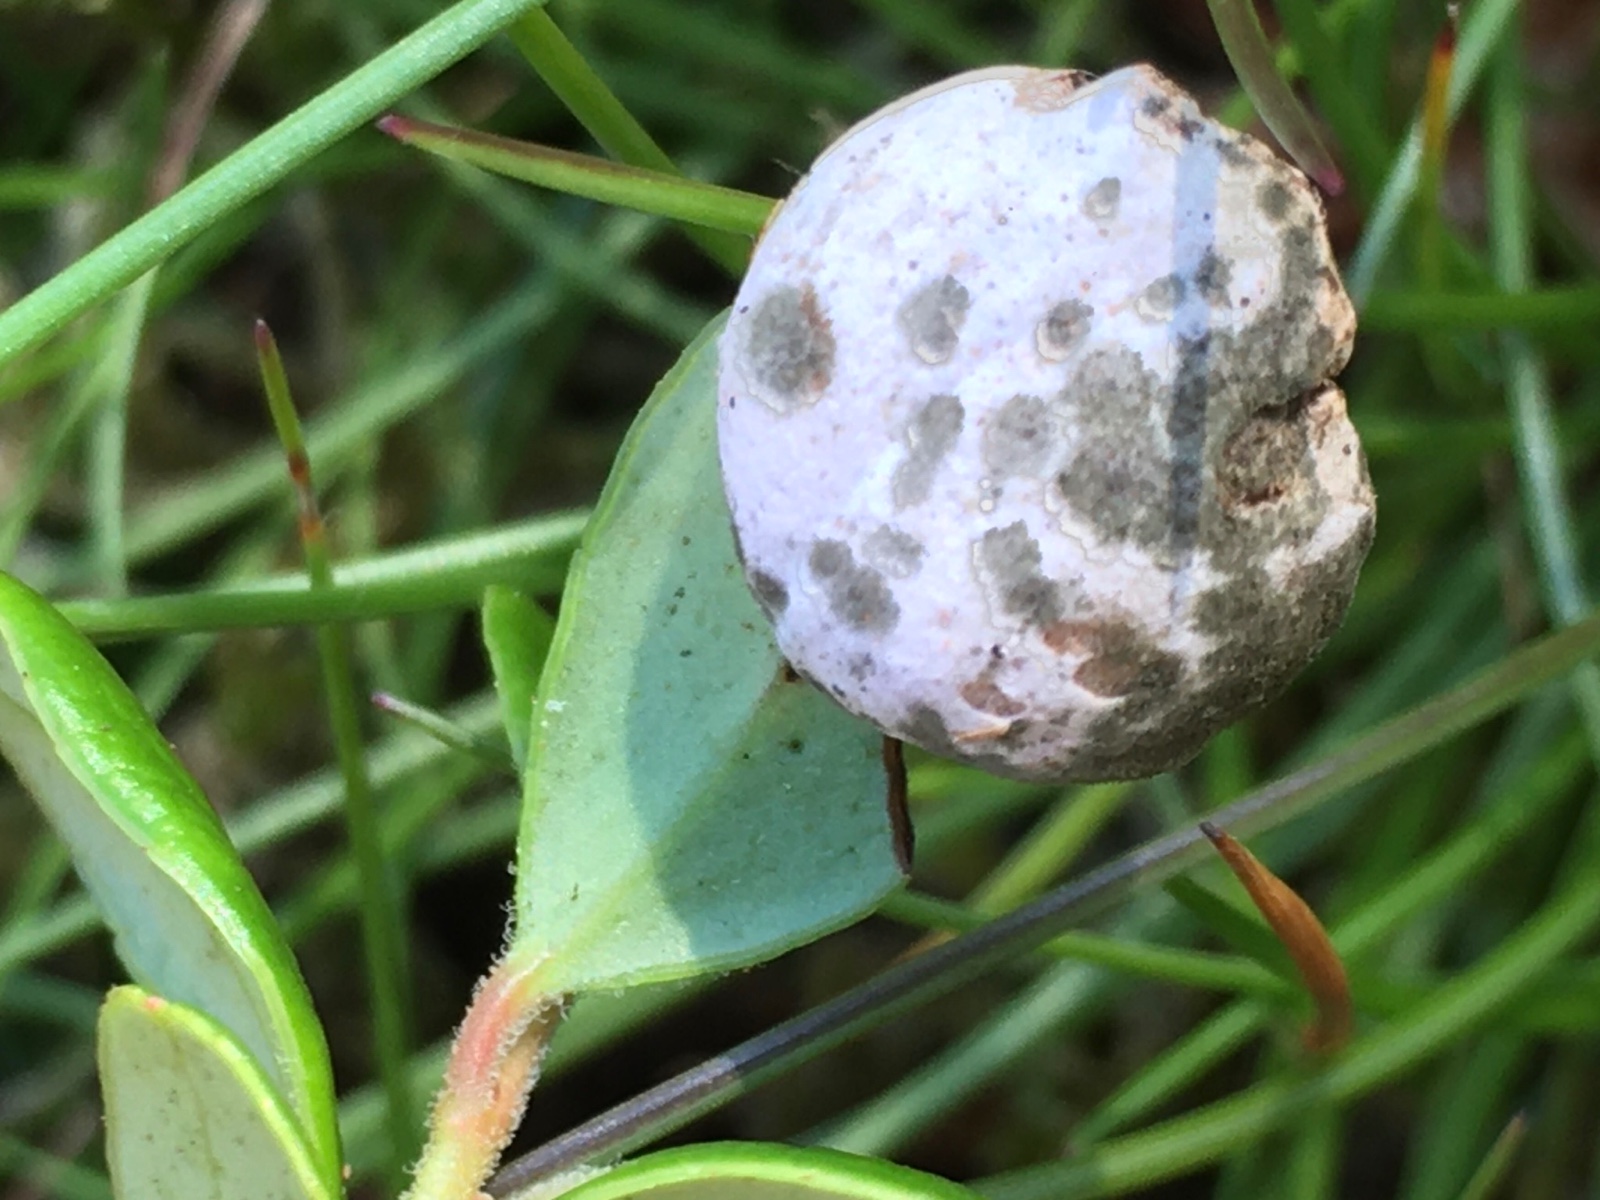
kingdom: Fungi
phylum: Basidiomycota
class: Exobasidiomycetes
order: Exobasidiales
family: Exobasidiaceae
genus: Exobasidium
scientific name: Exobasidium vaccinii
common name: tyttebærblad-bøllesvamp
